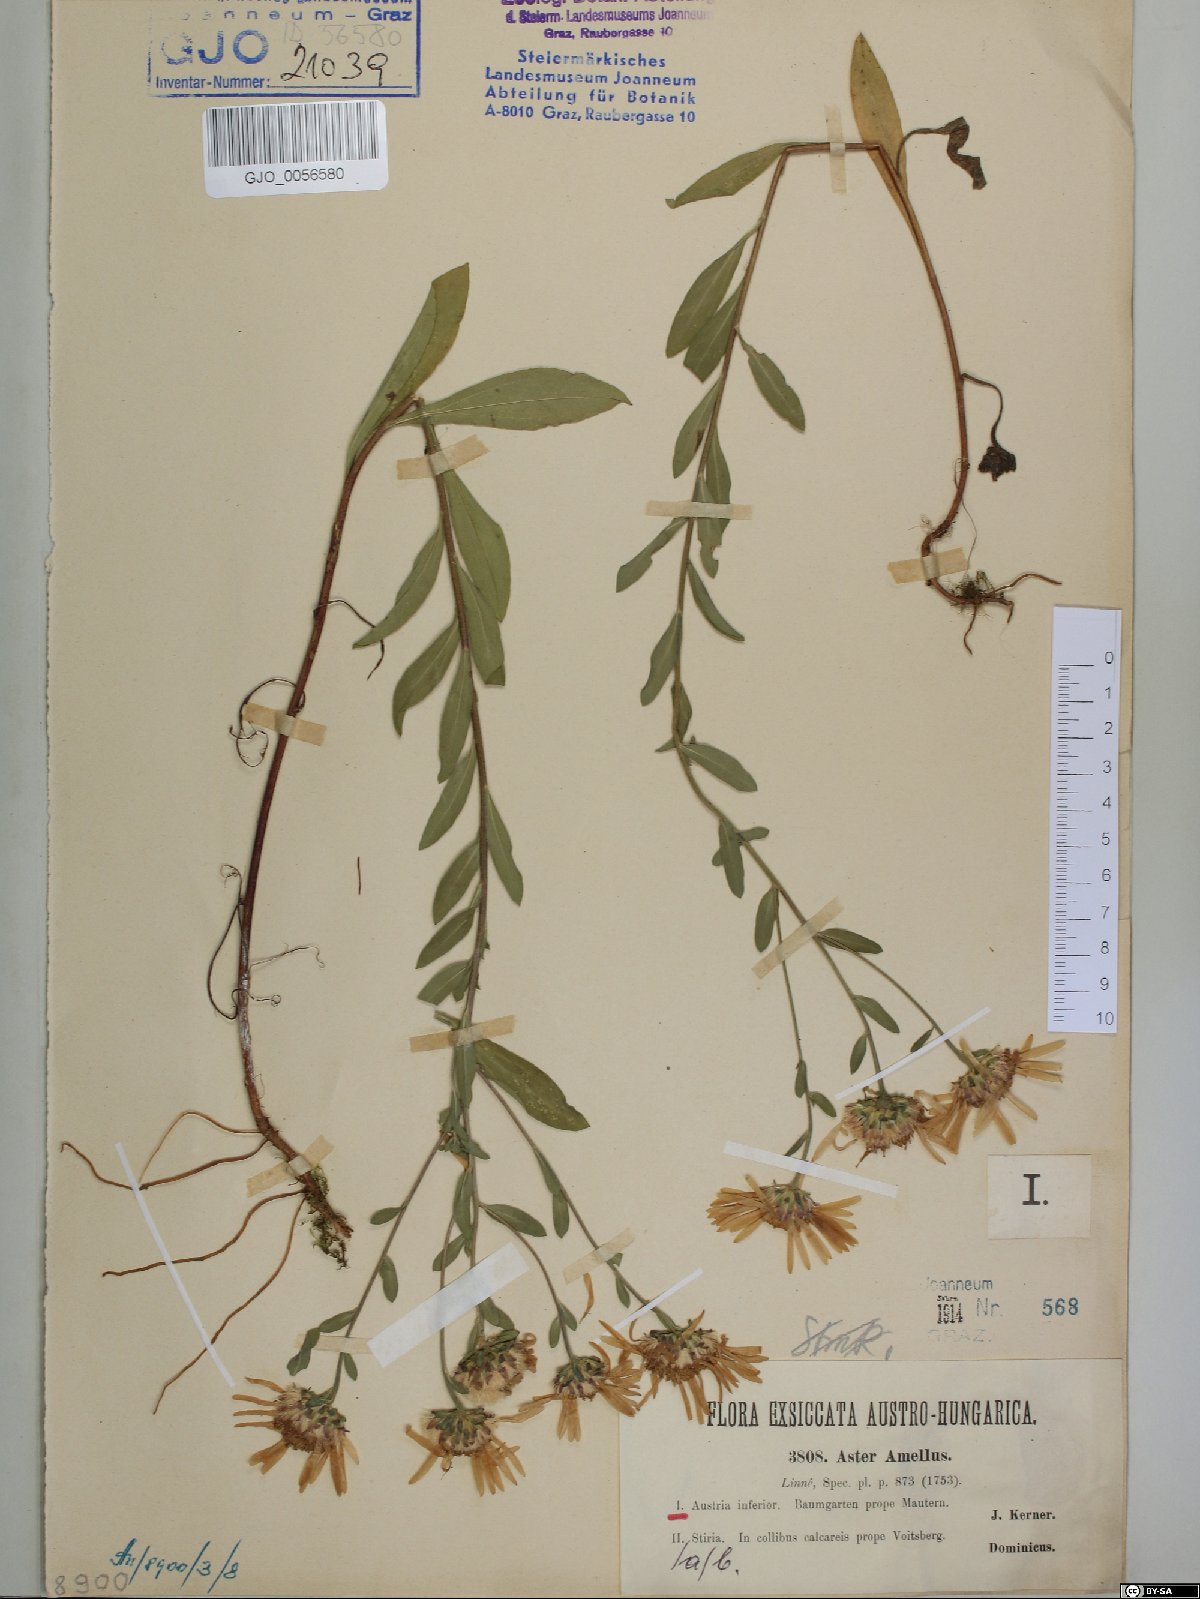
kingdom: Plantae
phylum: Tracheophyta
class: Magnoliopsida
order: Asterales
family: Asteraceae
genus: Aster
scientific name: Aster amellus
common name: European michaelmas daisy
